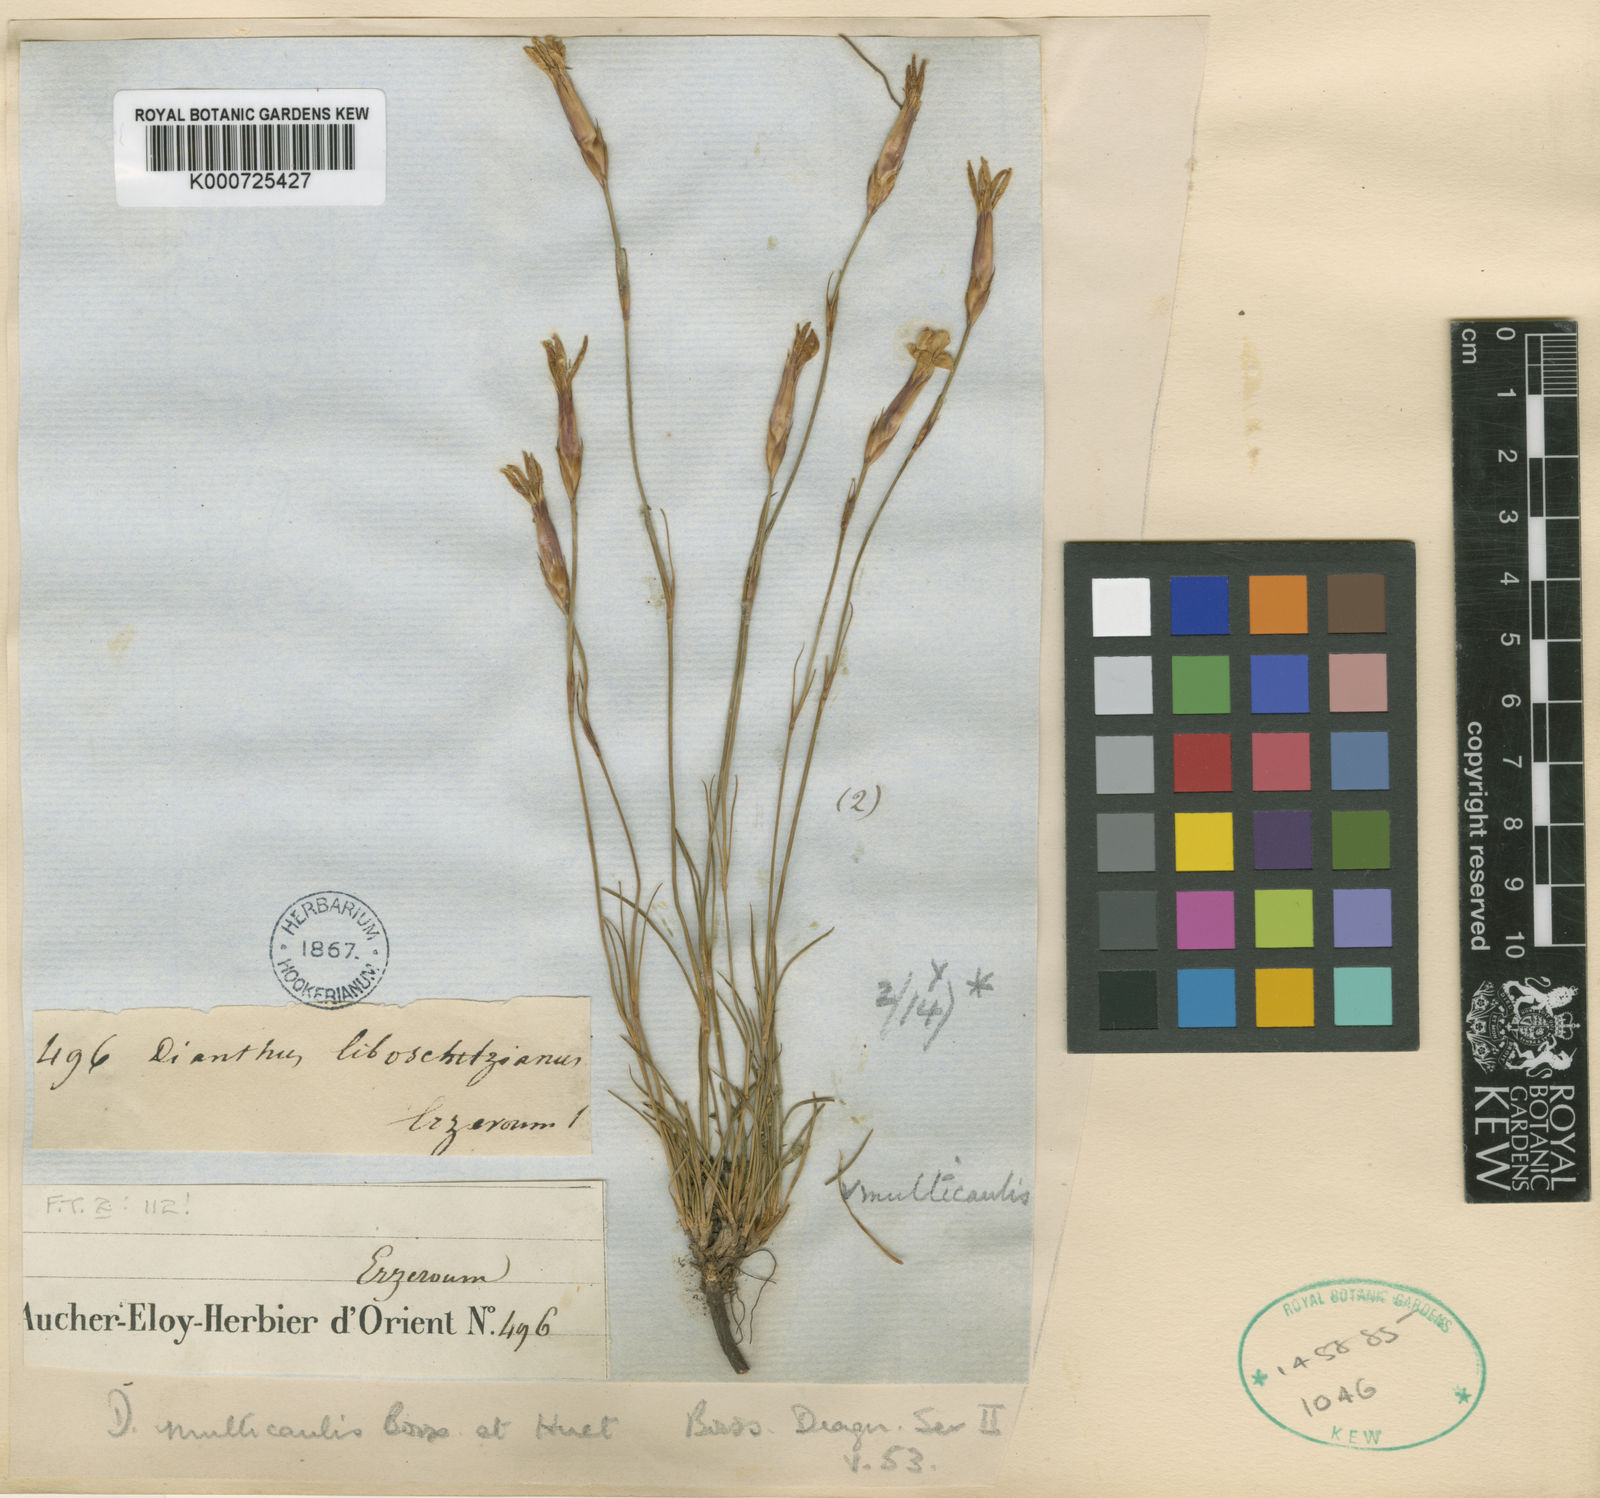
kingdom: Plantae
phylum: Tracheophyta
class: Magnoliopsida
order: Caryophyllales
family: Caryophyllaceae
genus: Dianthus
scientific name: Dianthus cretaceus
